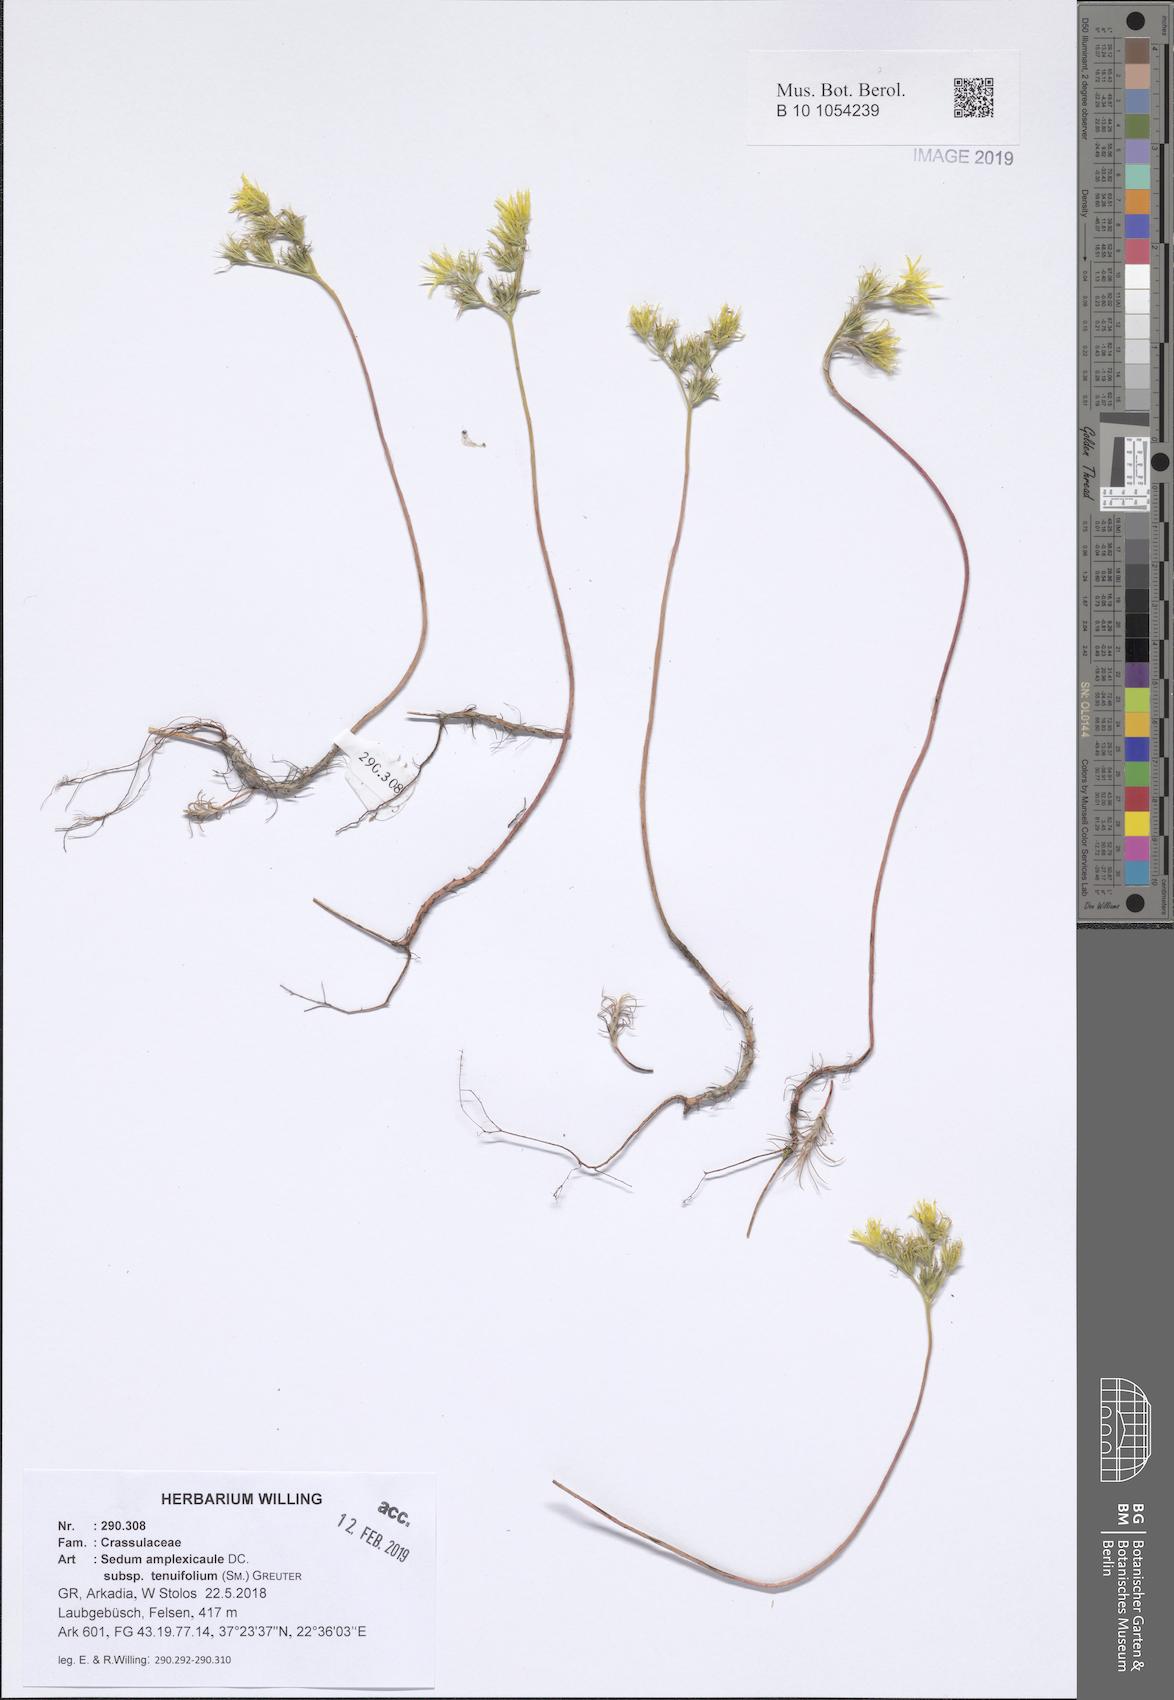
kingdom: Plantae
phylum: Tracheophyta
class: Magnoliopsida
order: Saxifragales
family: Crassulaceae
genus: Petrosedum
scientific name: Petrosedum tenuifolium
